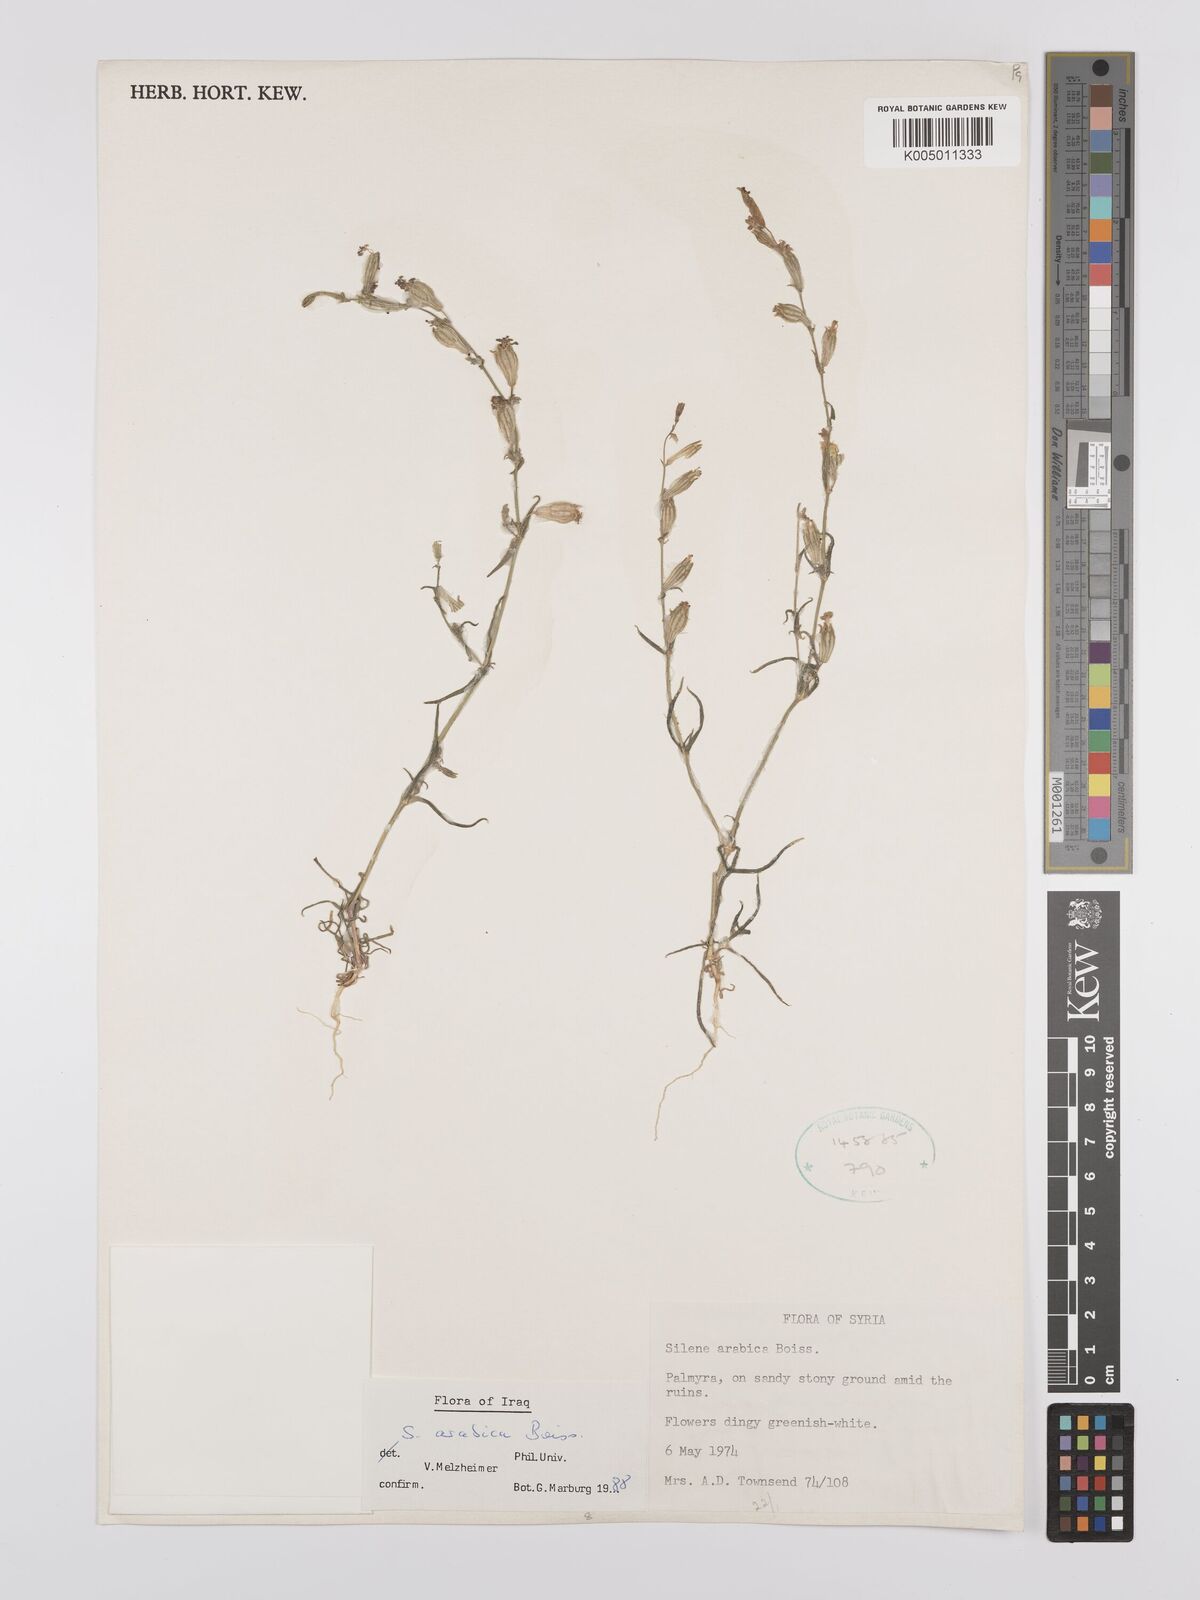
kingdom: Plantae
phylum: Tracheophyta
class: Magnoliopsida
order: Caryophyllales
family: Caryophyllaceae
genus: Silene
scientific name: Silene arabica
